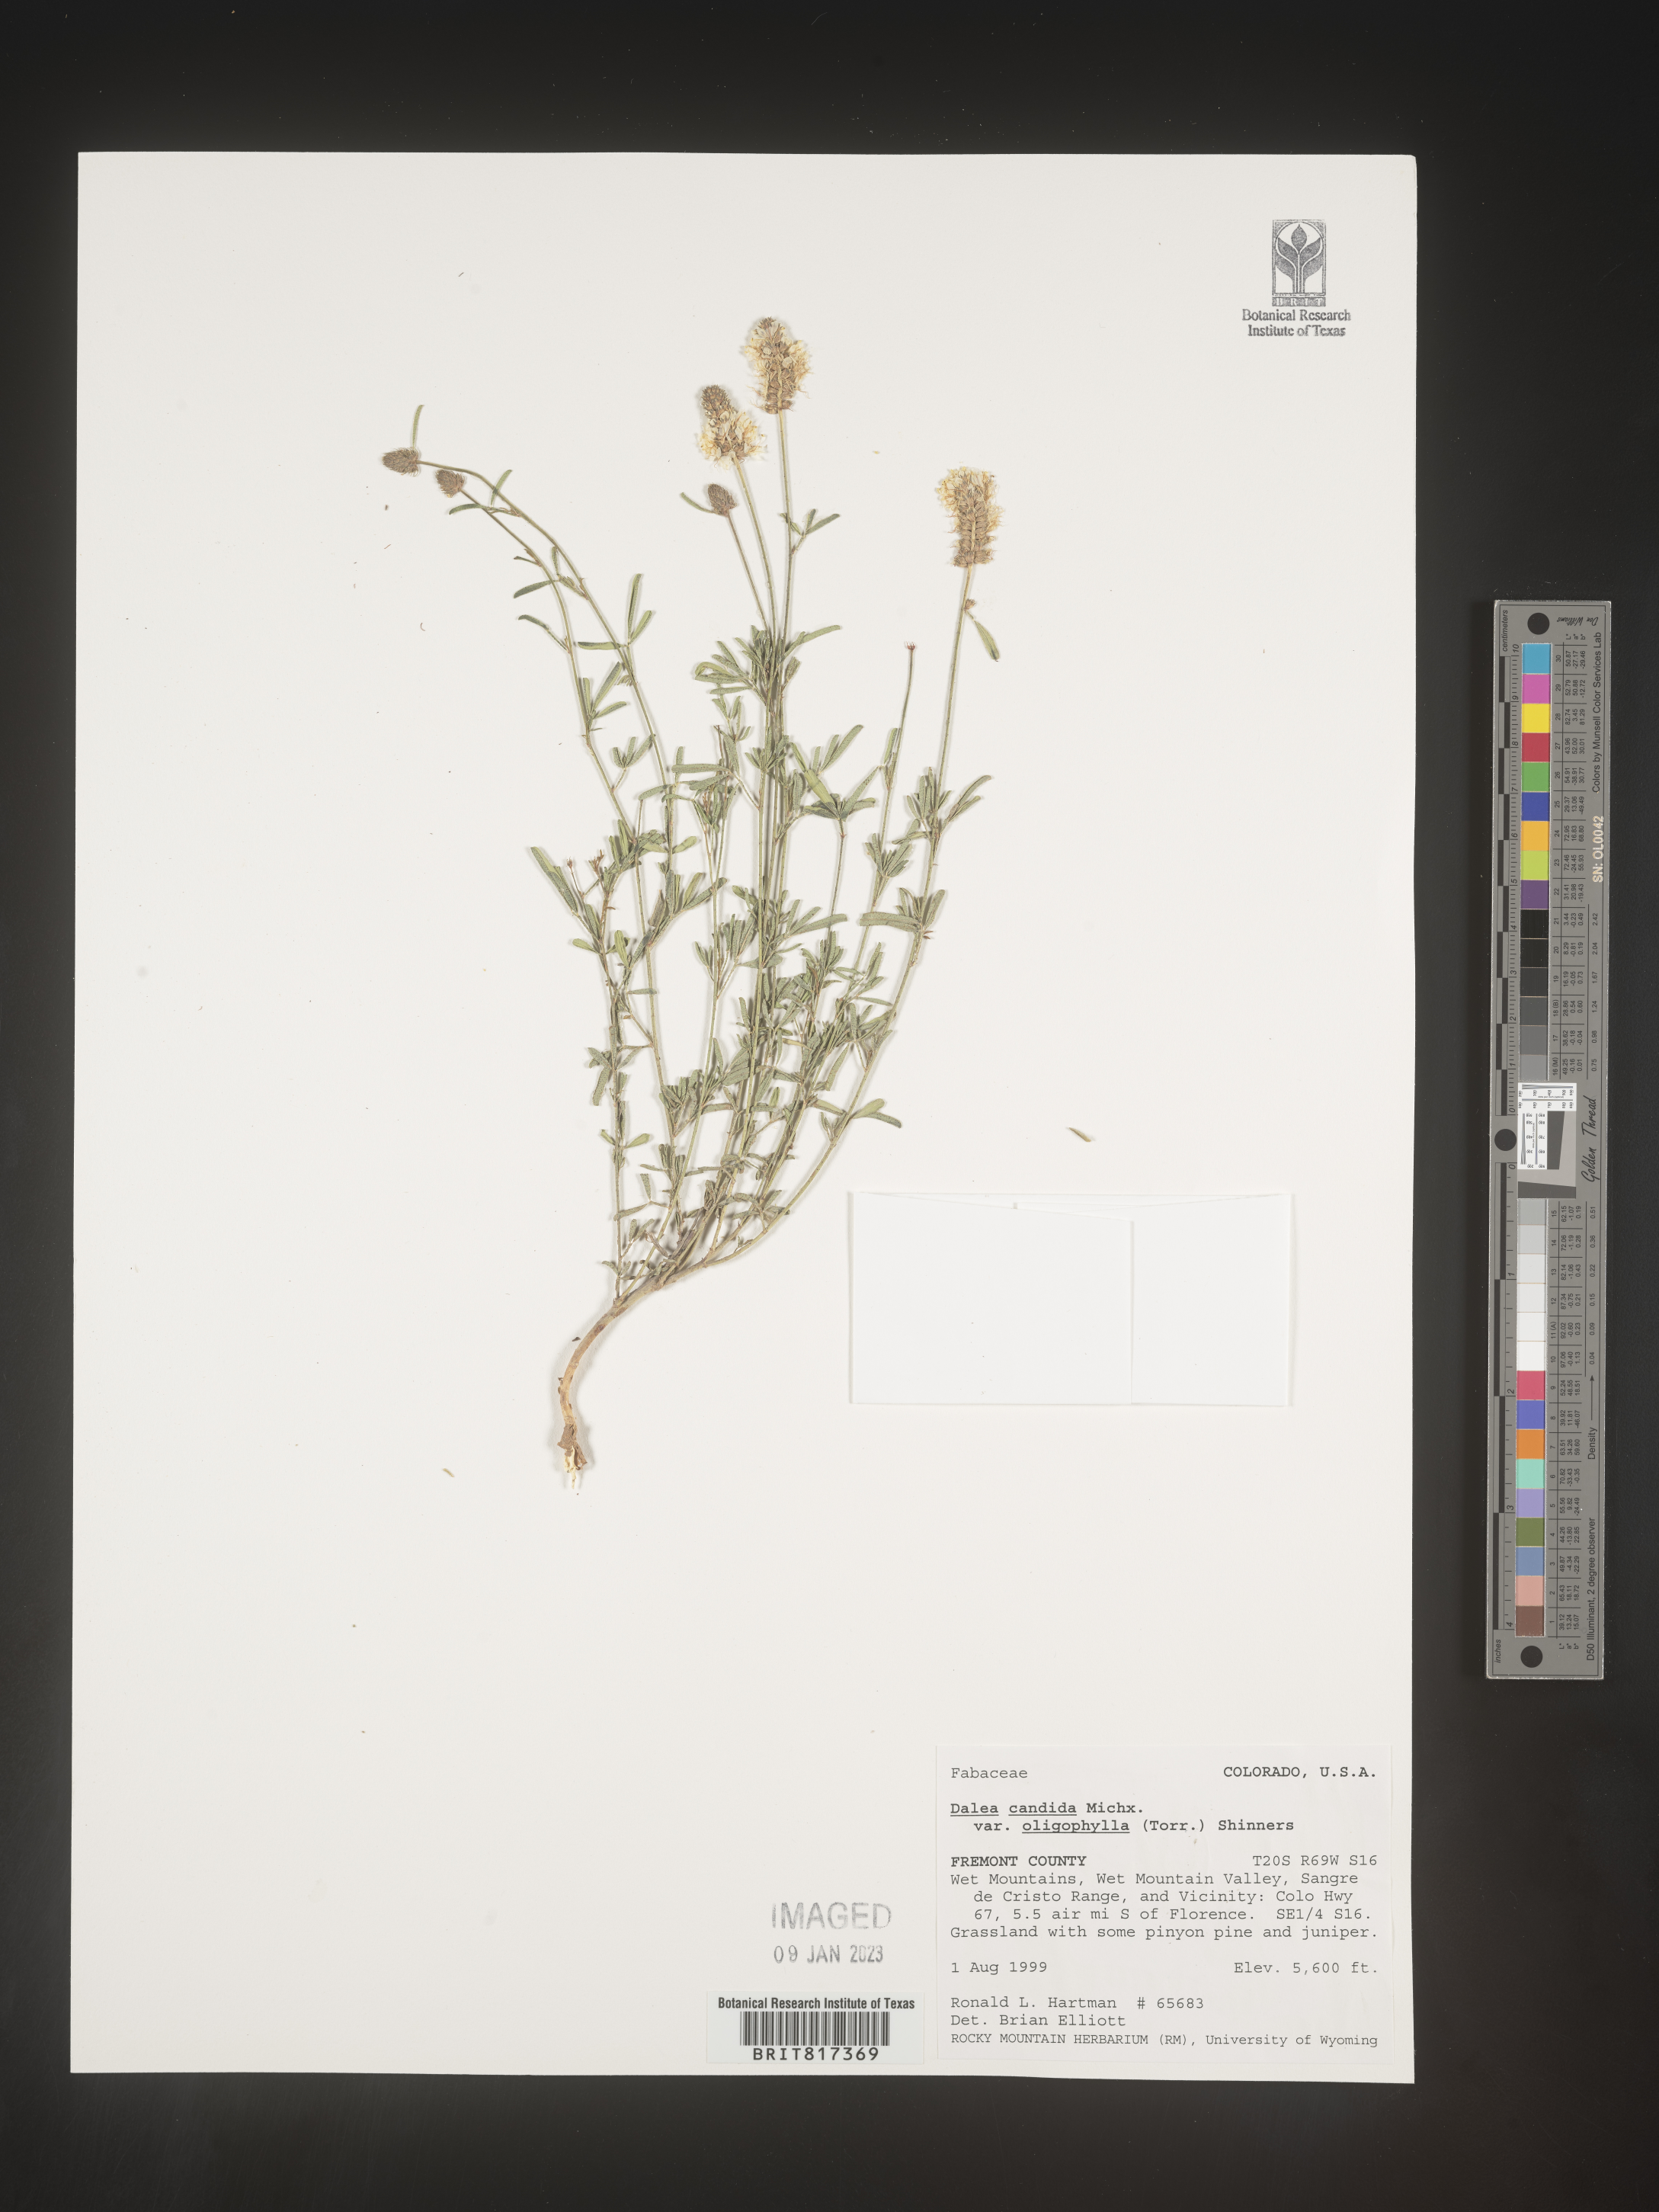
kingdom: Plantae
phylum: Tracheophyta
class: Magnoliopsida
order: Fabales
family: Fabaceae
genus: Dalea
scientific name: Dalea candida
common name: White prairie-clover
